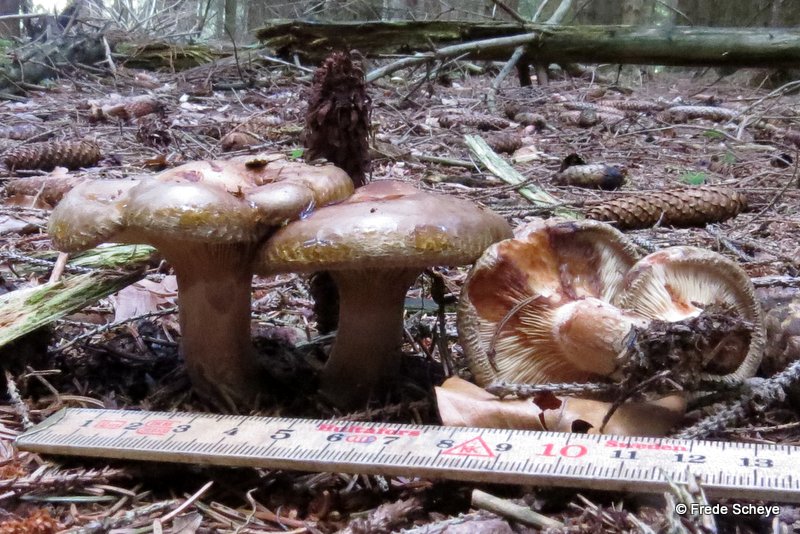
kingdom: Fungi
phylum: Basidiomycota
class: Agaricomycetes
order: Boletales
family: Paxillaceae
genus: Paxillus
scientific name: Paxillus involutus
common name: almindelig netbladhat
